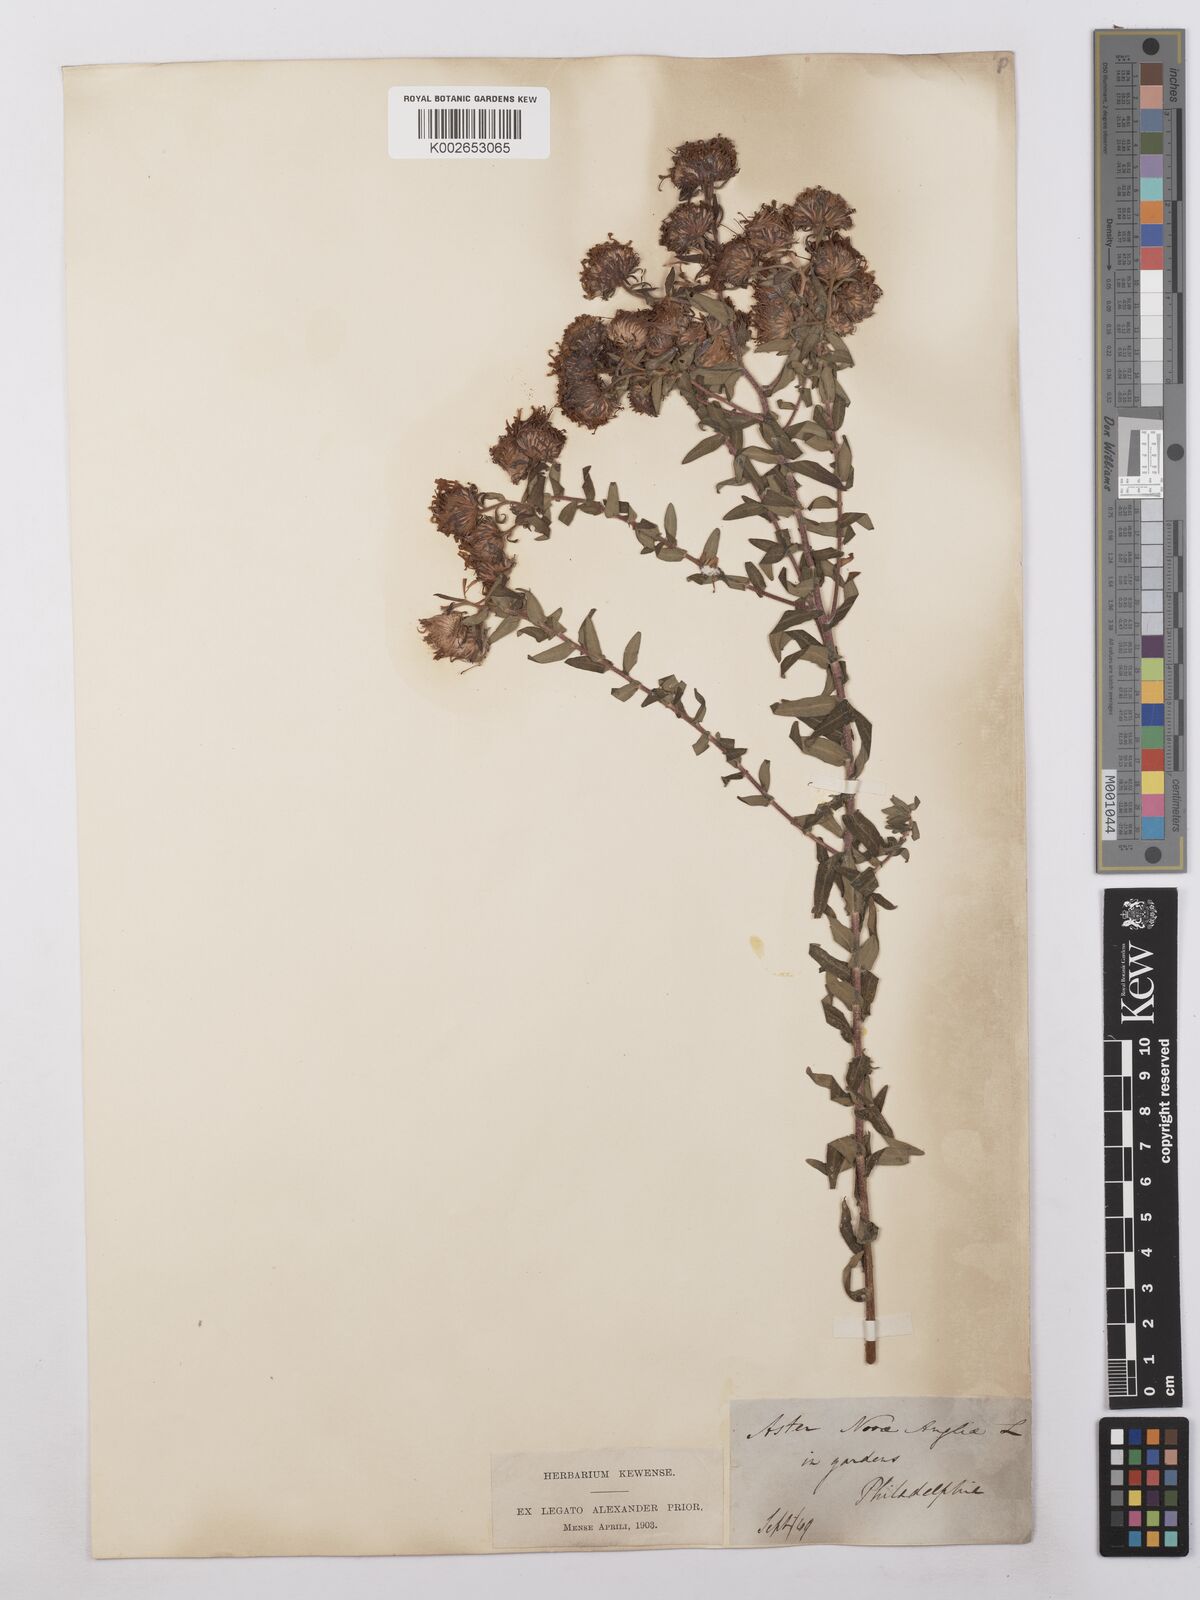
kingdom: Plantae
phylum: Tracheophyta
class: Magnoliopsida
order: Asterales
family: Asteraceae
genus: Symphyotrichum
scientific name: Symphyotrichum novae-angliae
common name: Michaelmas daisy
